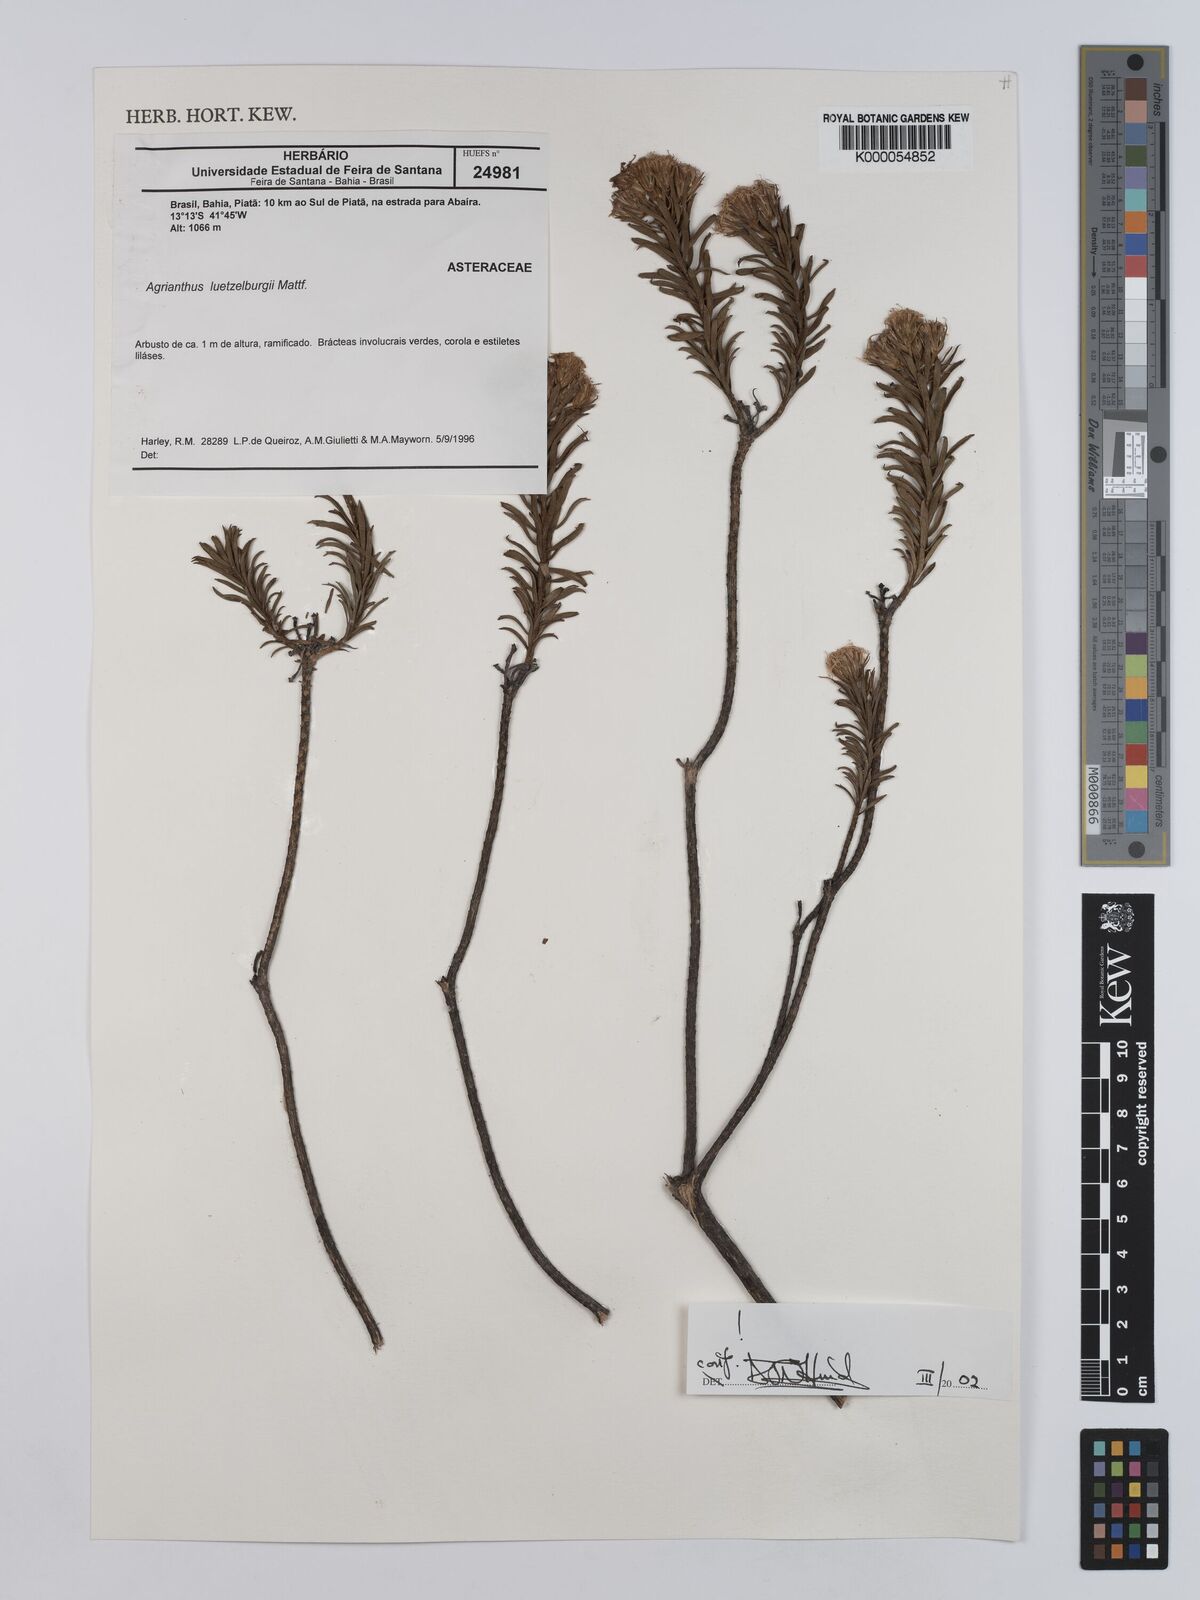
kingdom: Plantae
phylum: Tracheophyta
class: Magnoliopsida
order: Asterales
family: Asteraceae
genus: Agrianthus
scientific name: Agrianthus
